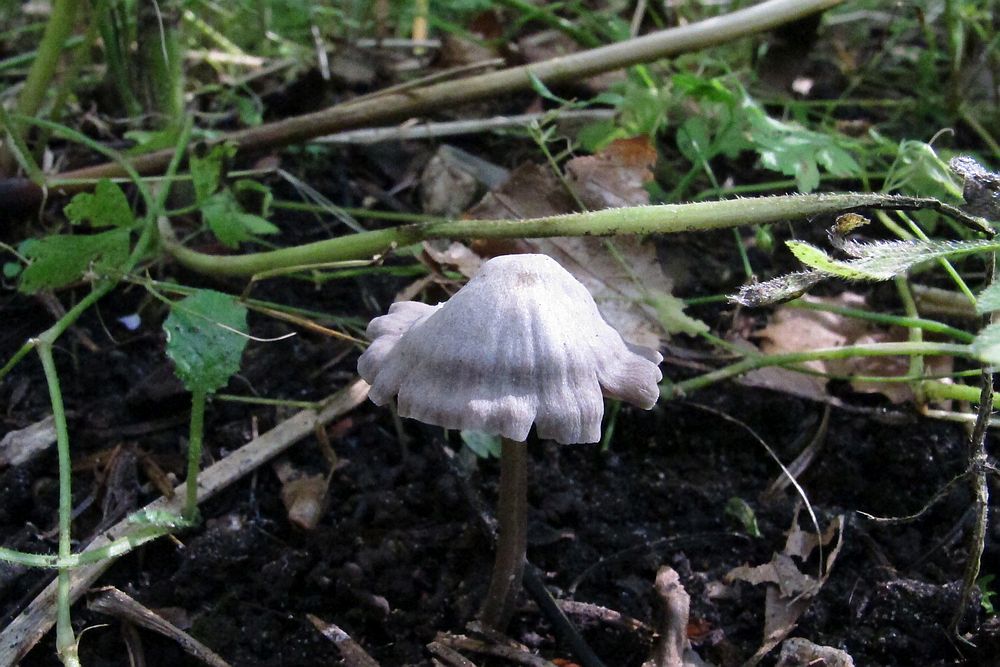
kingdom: Fungi
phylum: Basidiomycota
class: Agaricomycetes
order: Agaricales
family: Mycenaceae
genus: Mycena
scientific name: Mycena aetites
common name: plæne-huesvamp
